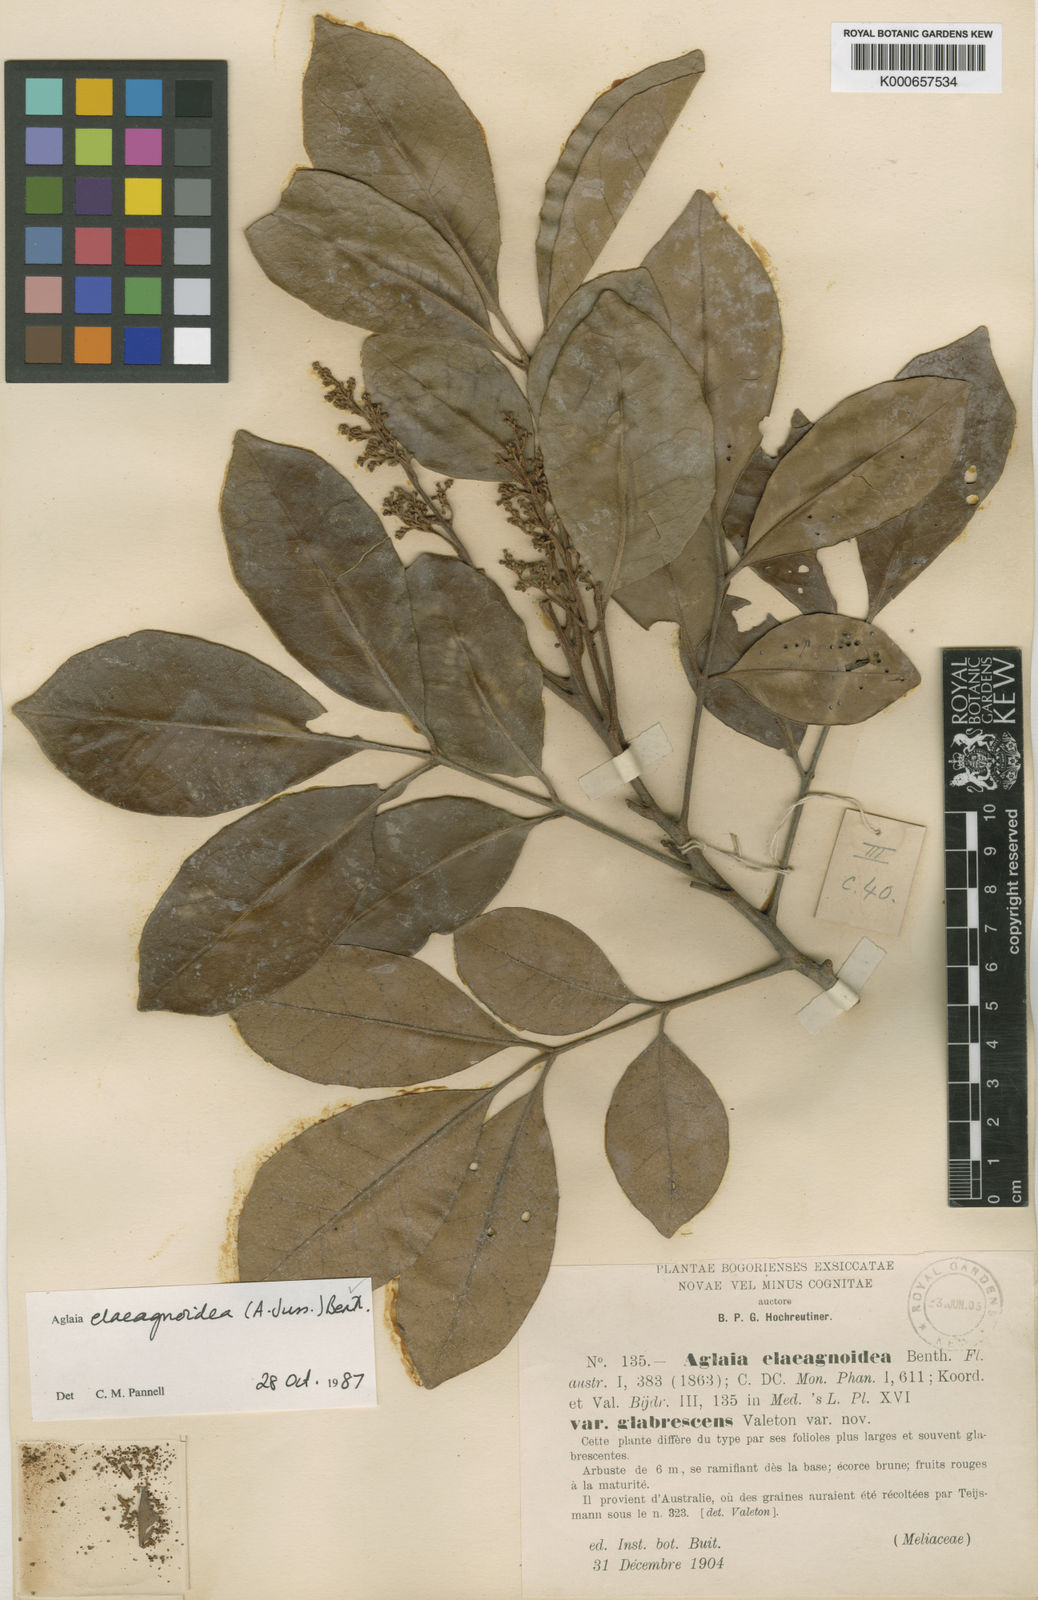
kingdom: Plantae
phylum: Tracheophyta
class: Magnoliopsida
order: Sapindales
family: Meliaceae
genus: Aglaia
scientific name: Aglaia elaeagnoidea
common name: Droopyleaf
